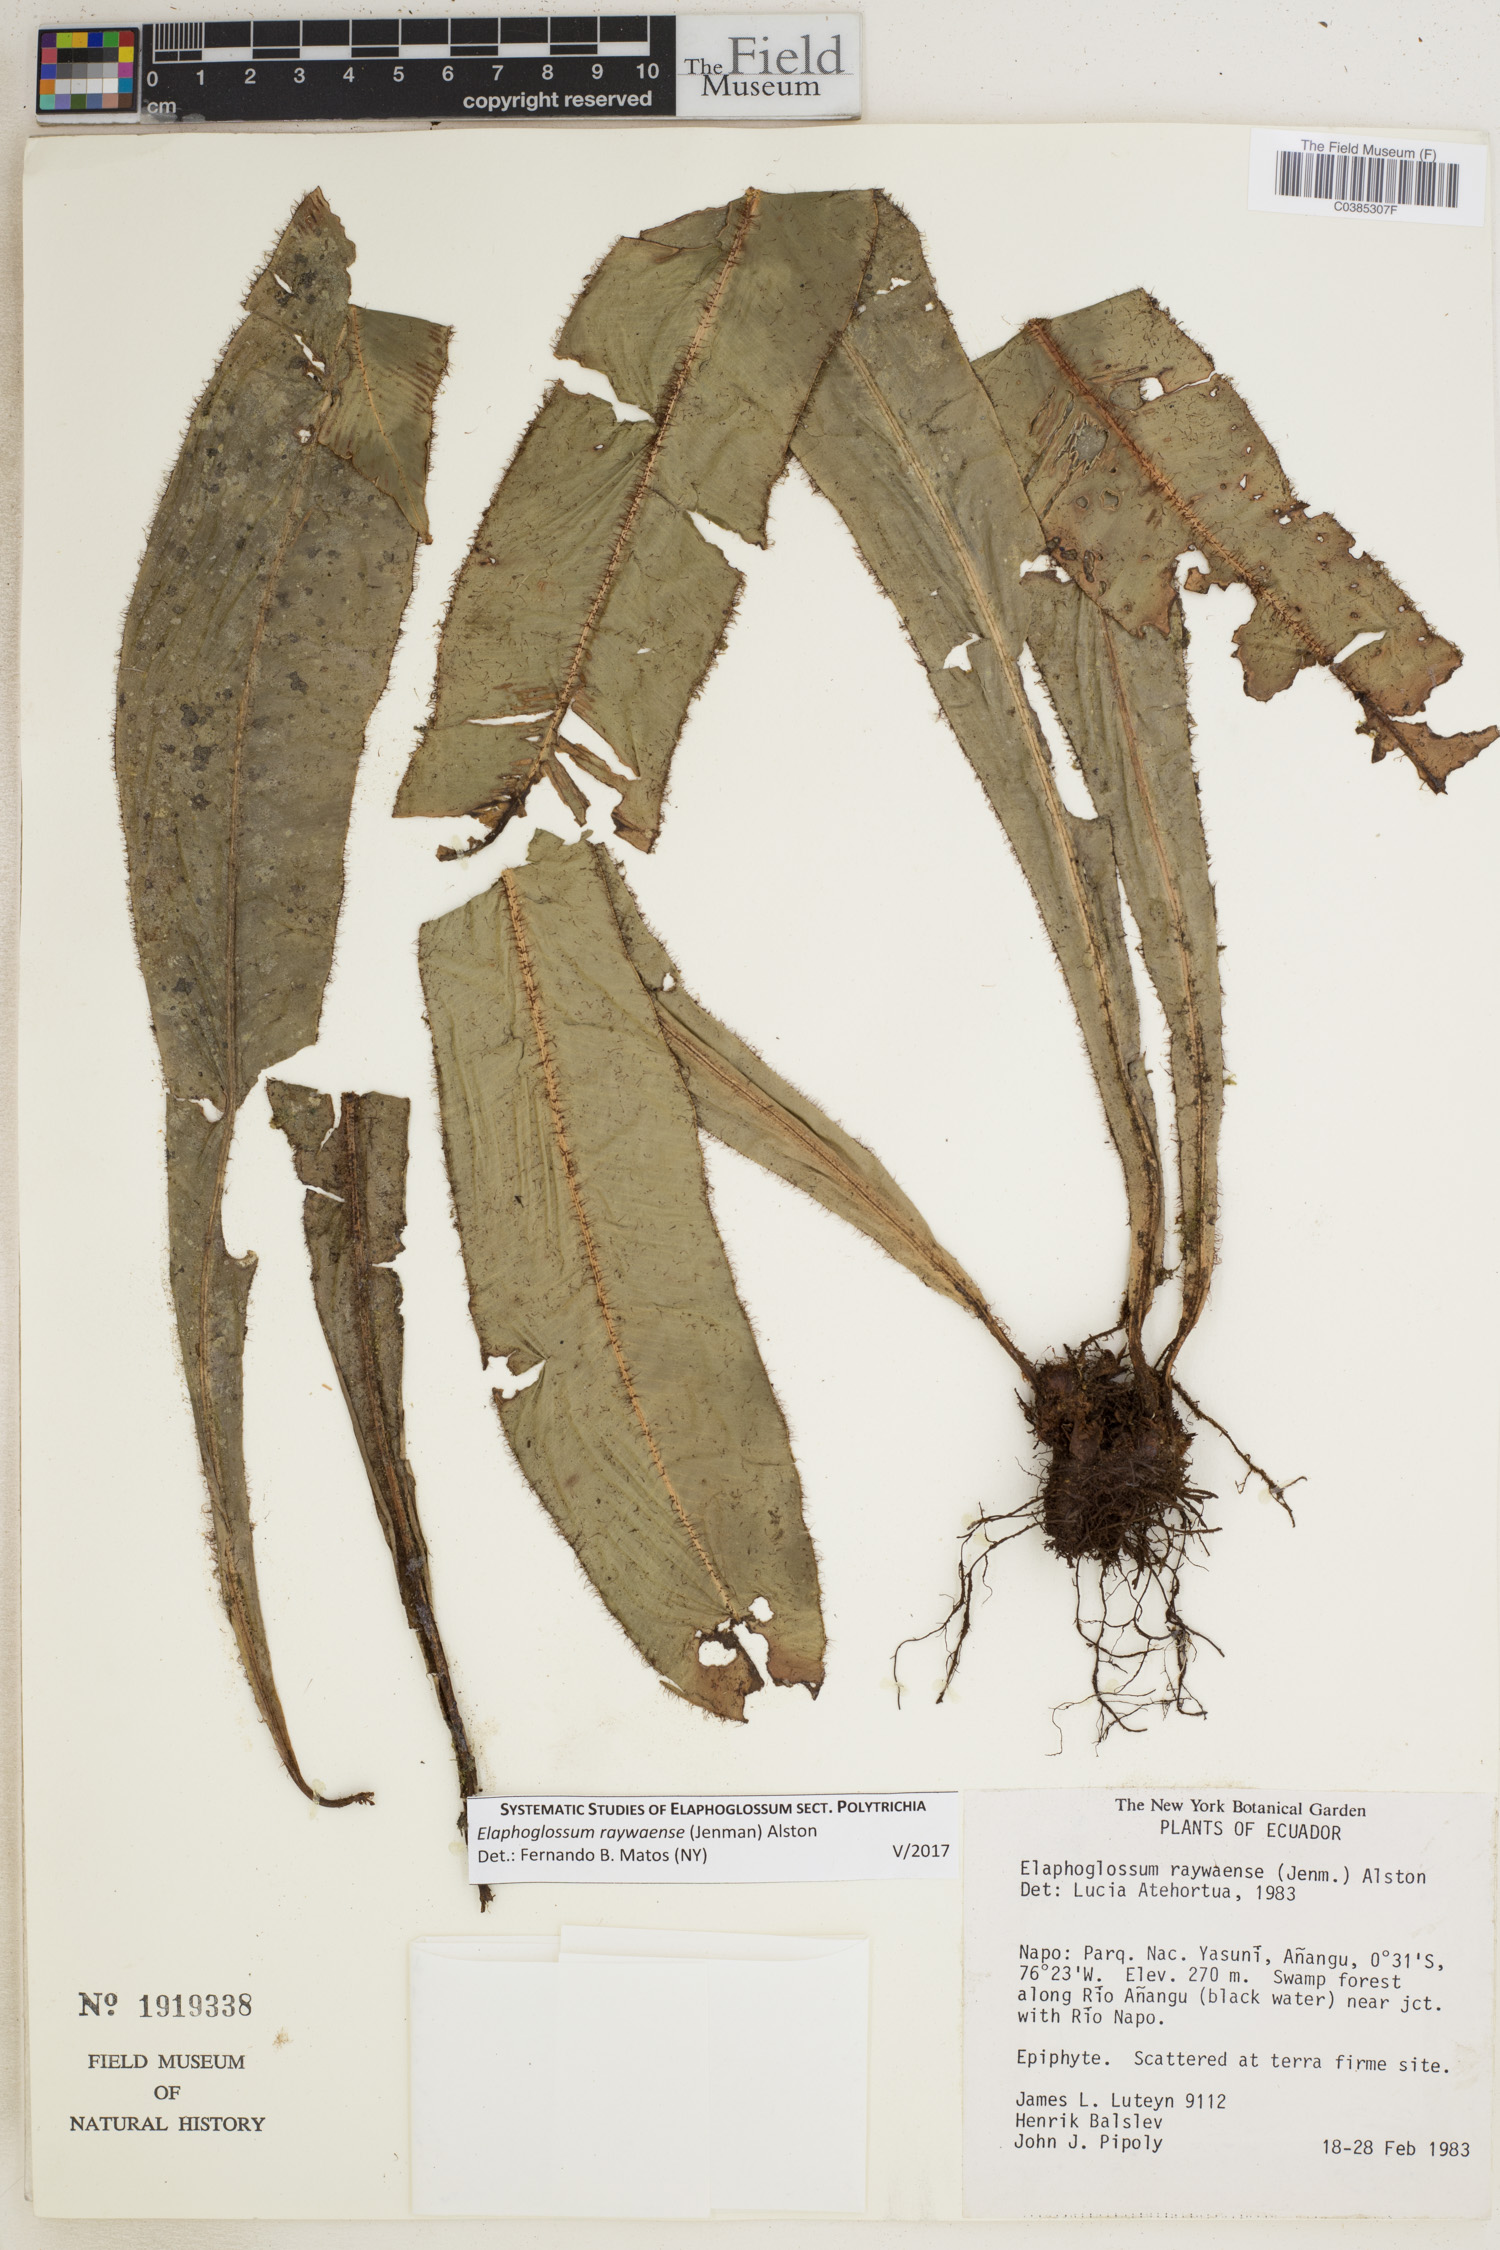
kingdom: Plantae
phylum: Tracheophyta
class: Polypodiopsida
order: Polypodiales
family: Dryopteridaceae
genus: Elaphoglossum
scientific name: Elaphoglossum raywaense
